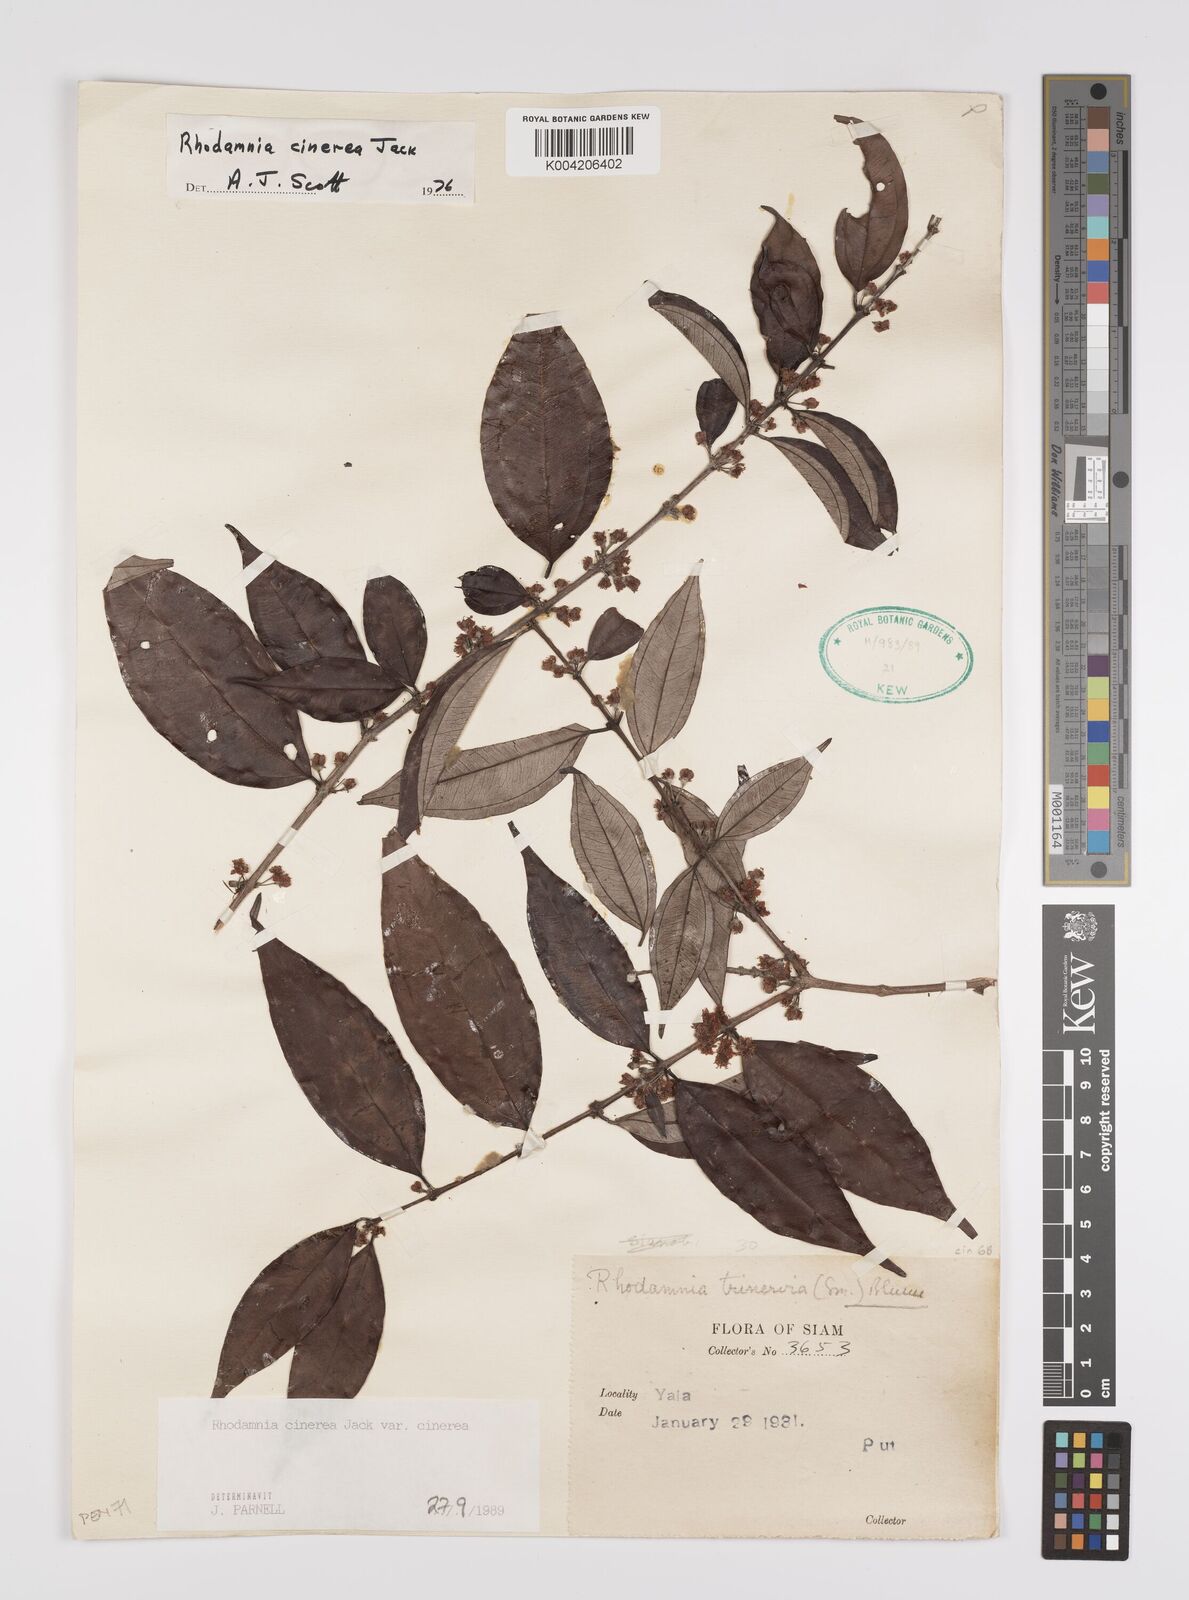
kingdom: Plantae
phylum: Tracheophyta
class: Magnoliopsida
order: Myrtales
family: Myrtaceae
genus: Rhodamnia
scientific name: Rhodamnia cinerea
